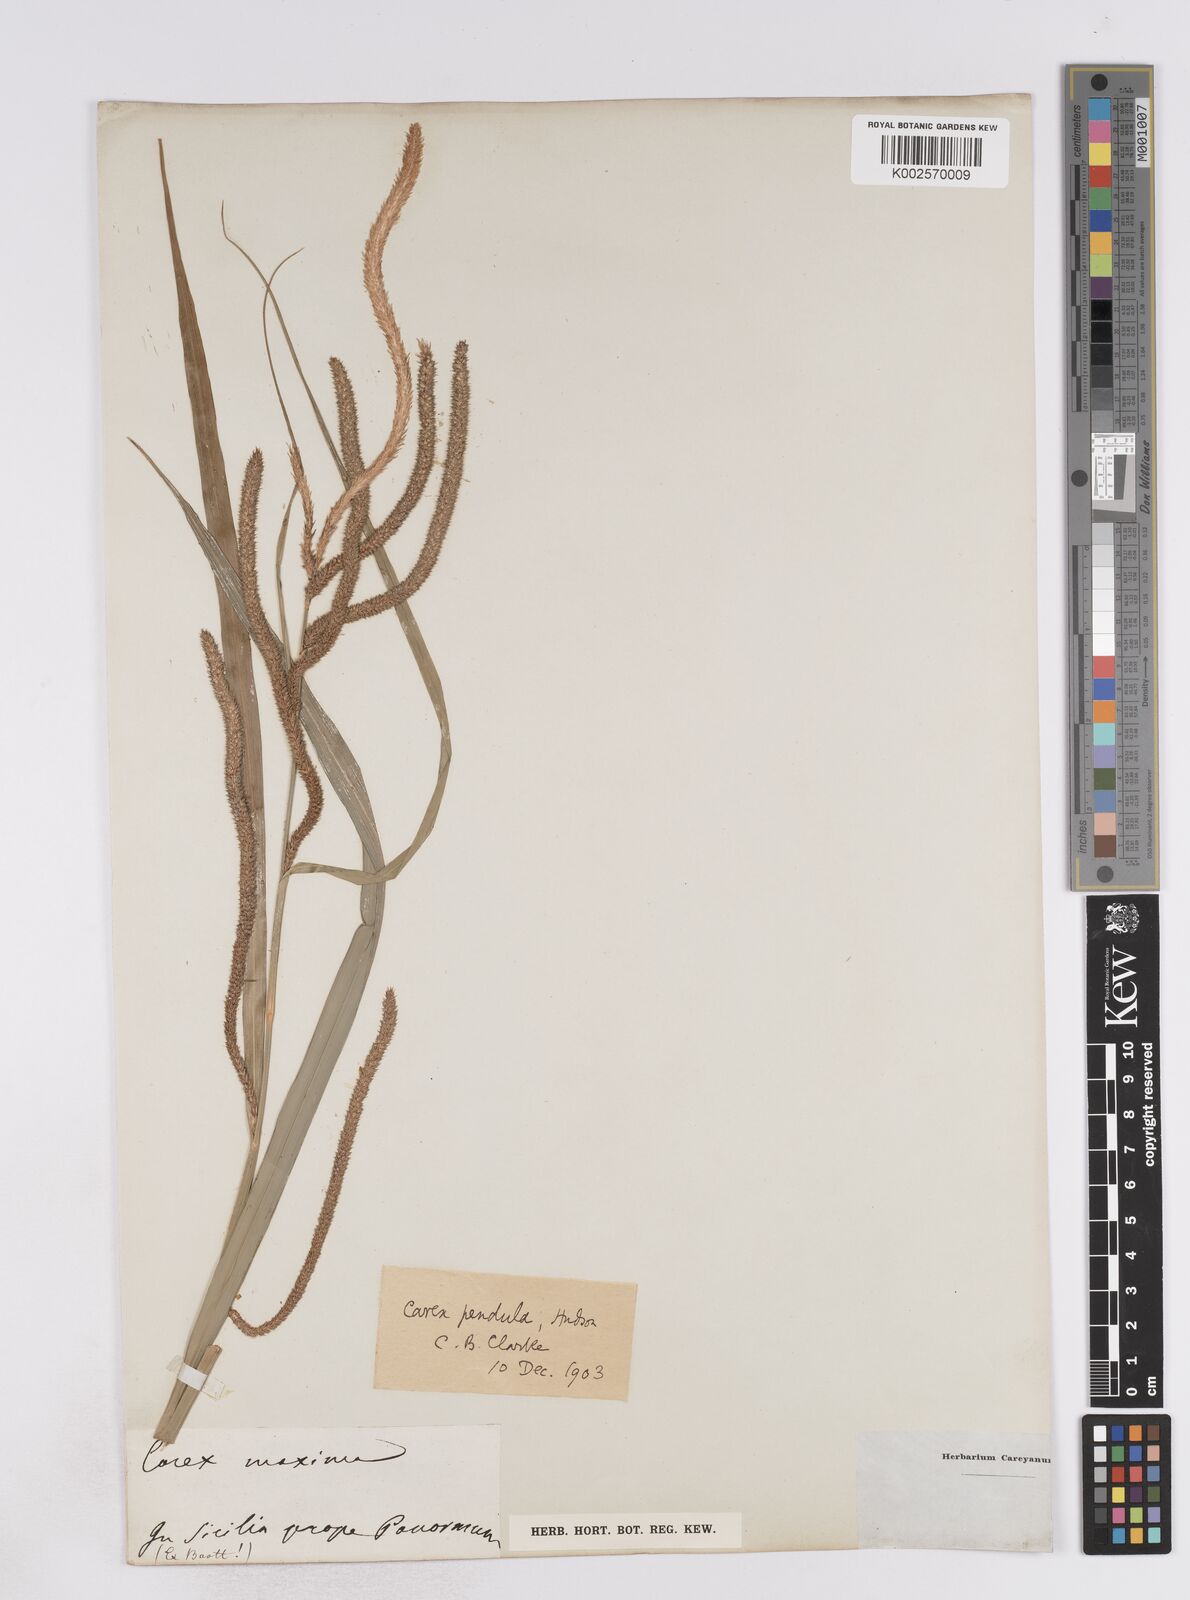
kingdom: Plantae
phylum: Tracheophyta
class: Liliopsida
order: Poales
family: Cyperaceae
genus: Carex
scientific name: Carex pendula
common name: Pendulous sedge
